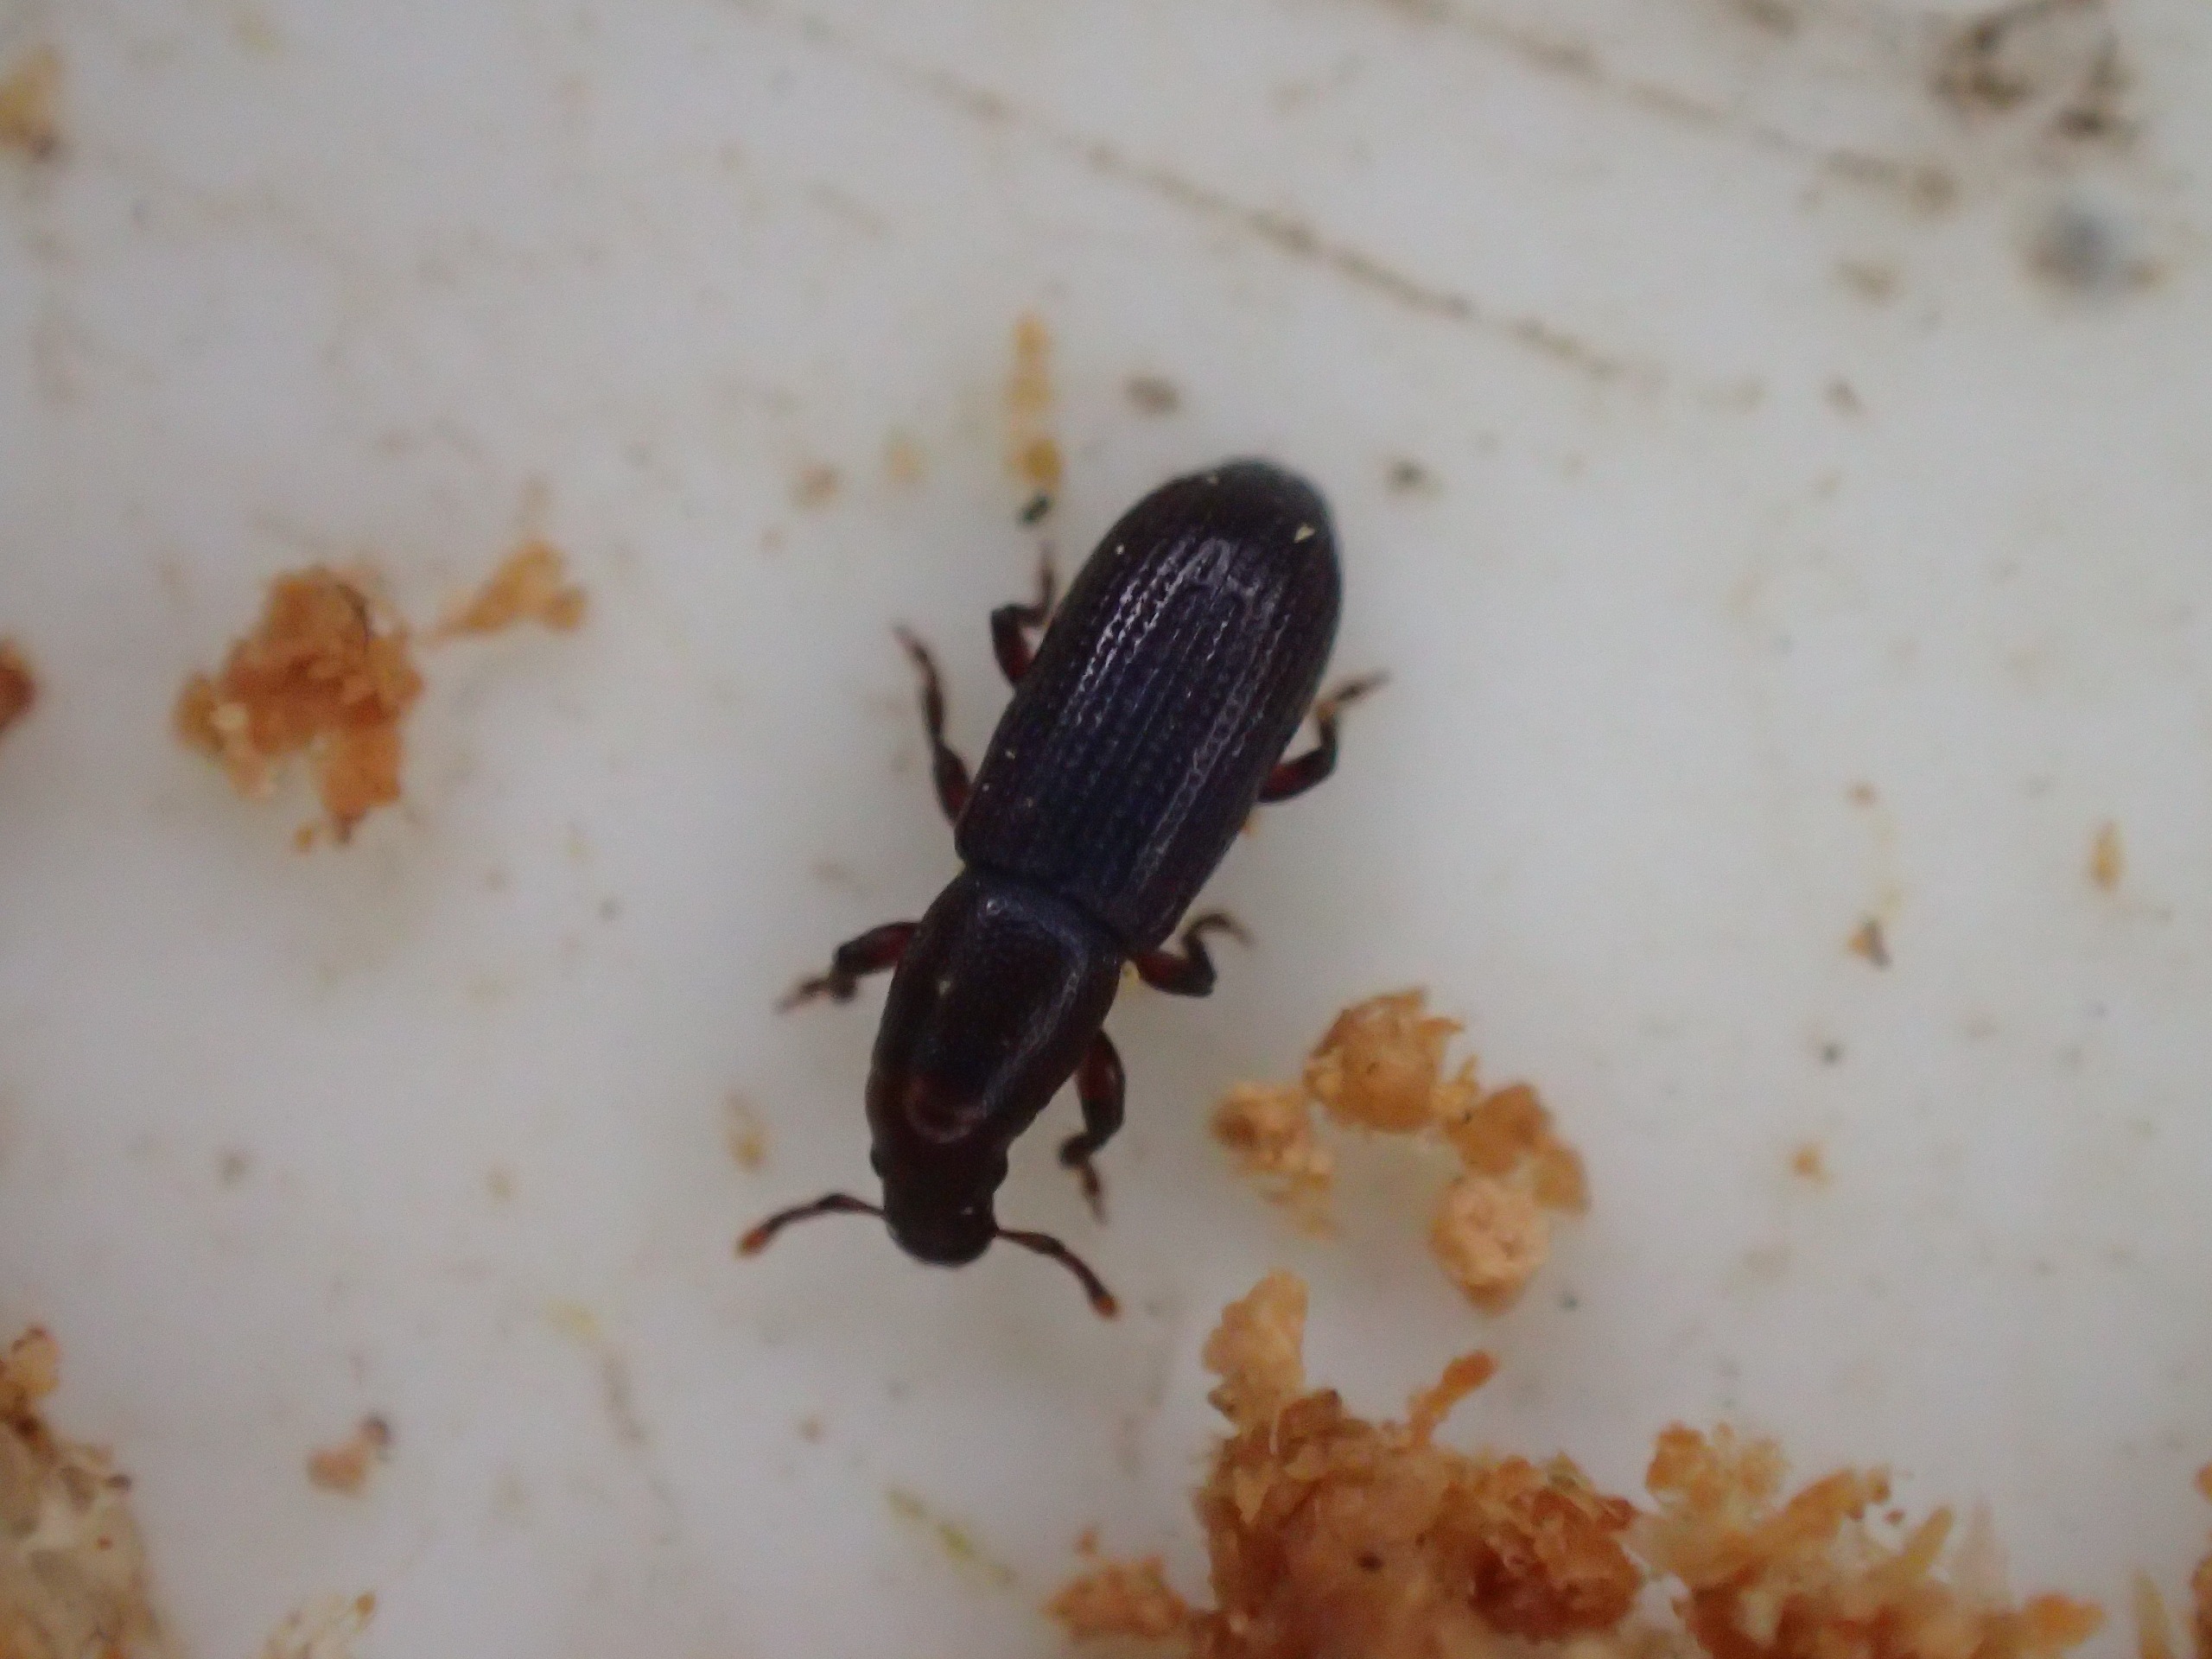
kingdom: Animalia
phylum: Arthropoda
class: Insecta
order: Coleoptera
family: Curculionidae
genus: Rhyncolus
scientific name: Rhyncolus ater
